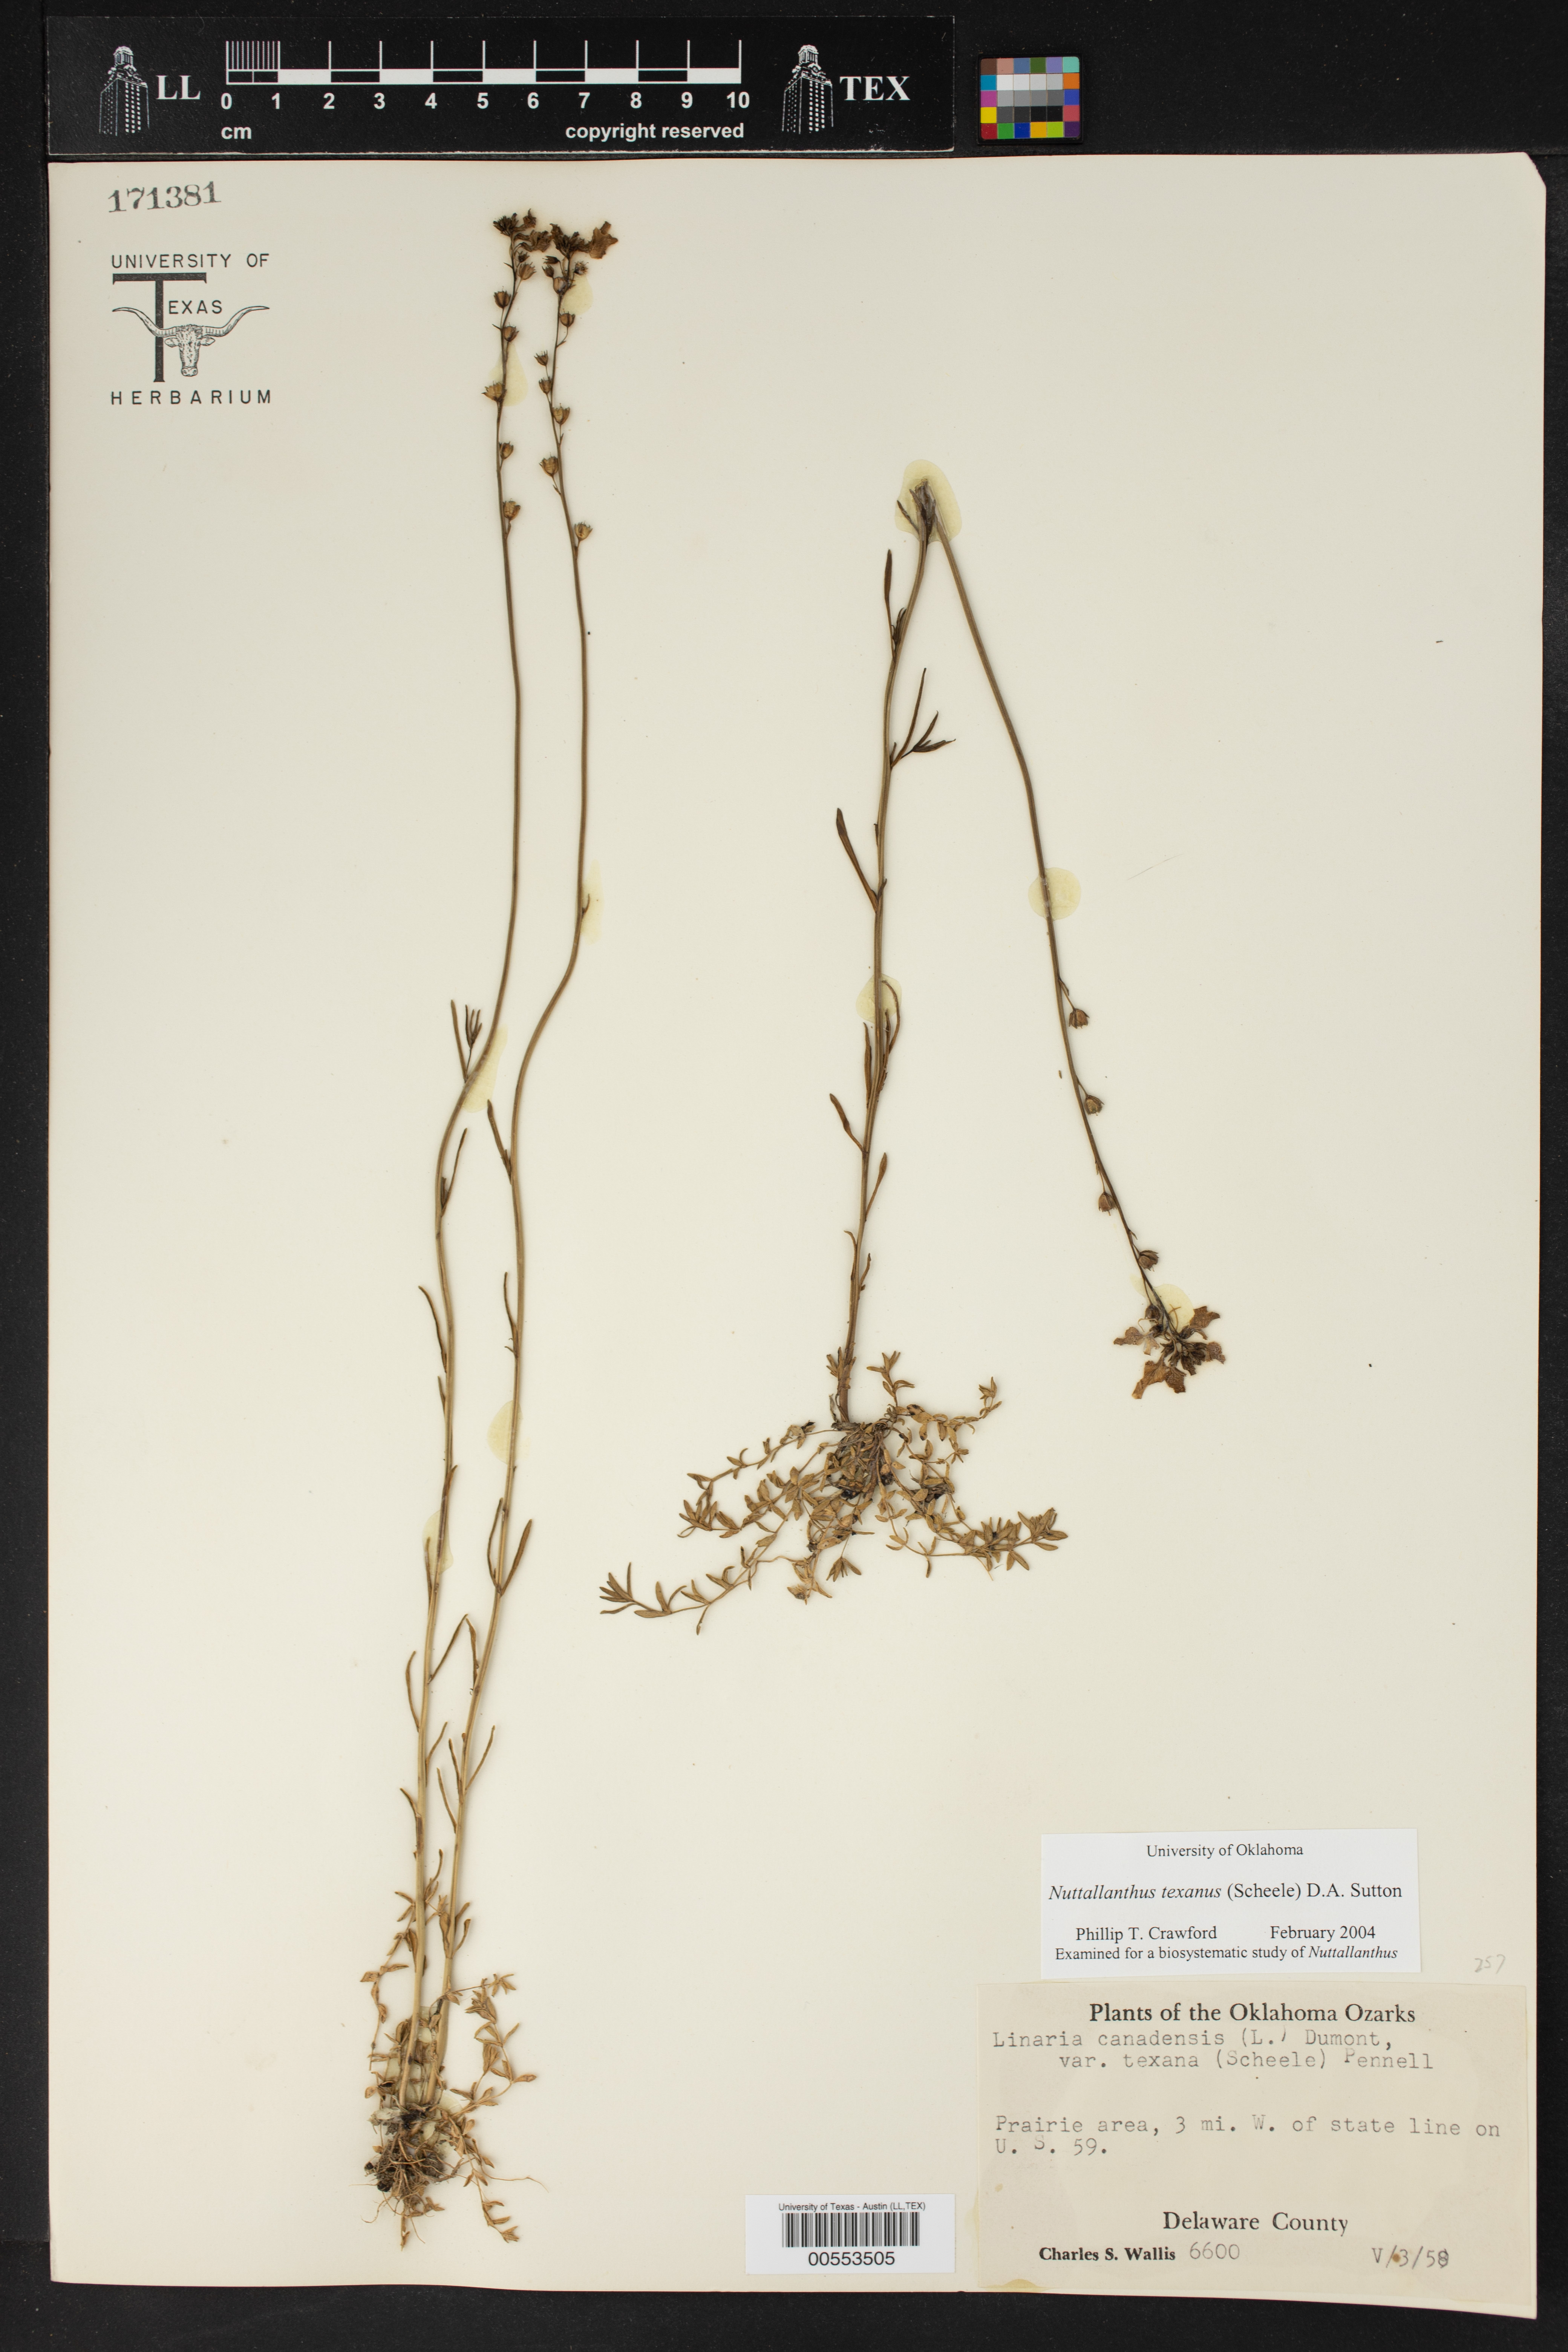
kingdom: Plantae
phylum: Tracheophyta
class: Magnoliopsida
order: Lamiales
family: Plantaginaceae
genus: Nuttallanthus
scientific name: Nuttallanthus texanus
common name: Texas toadflax
